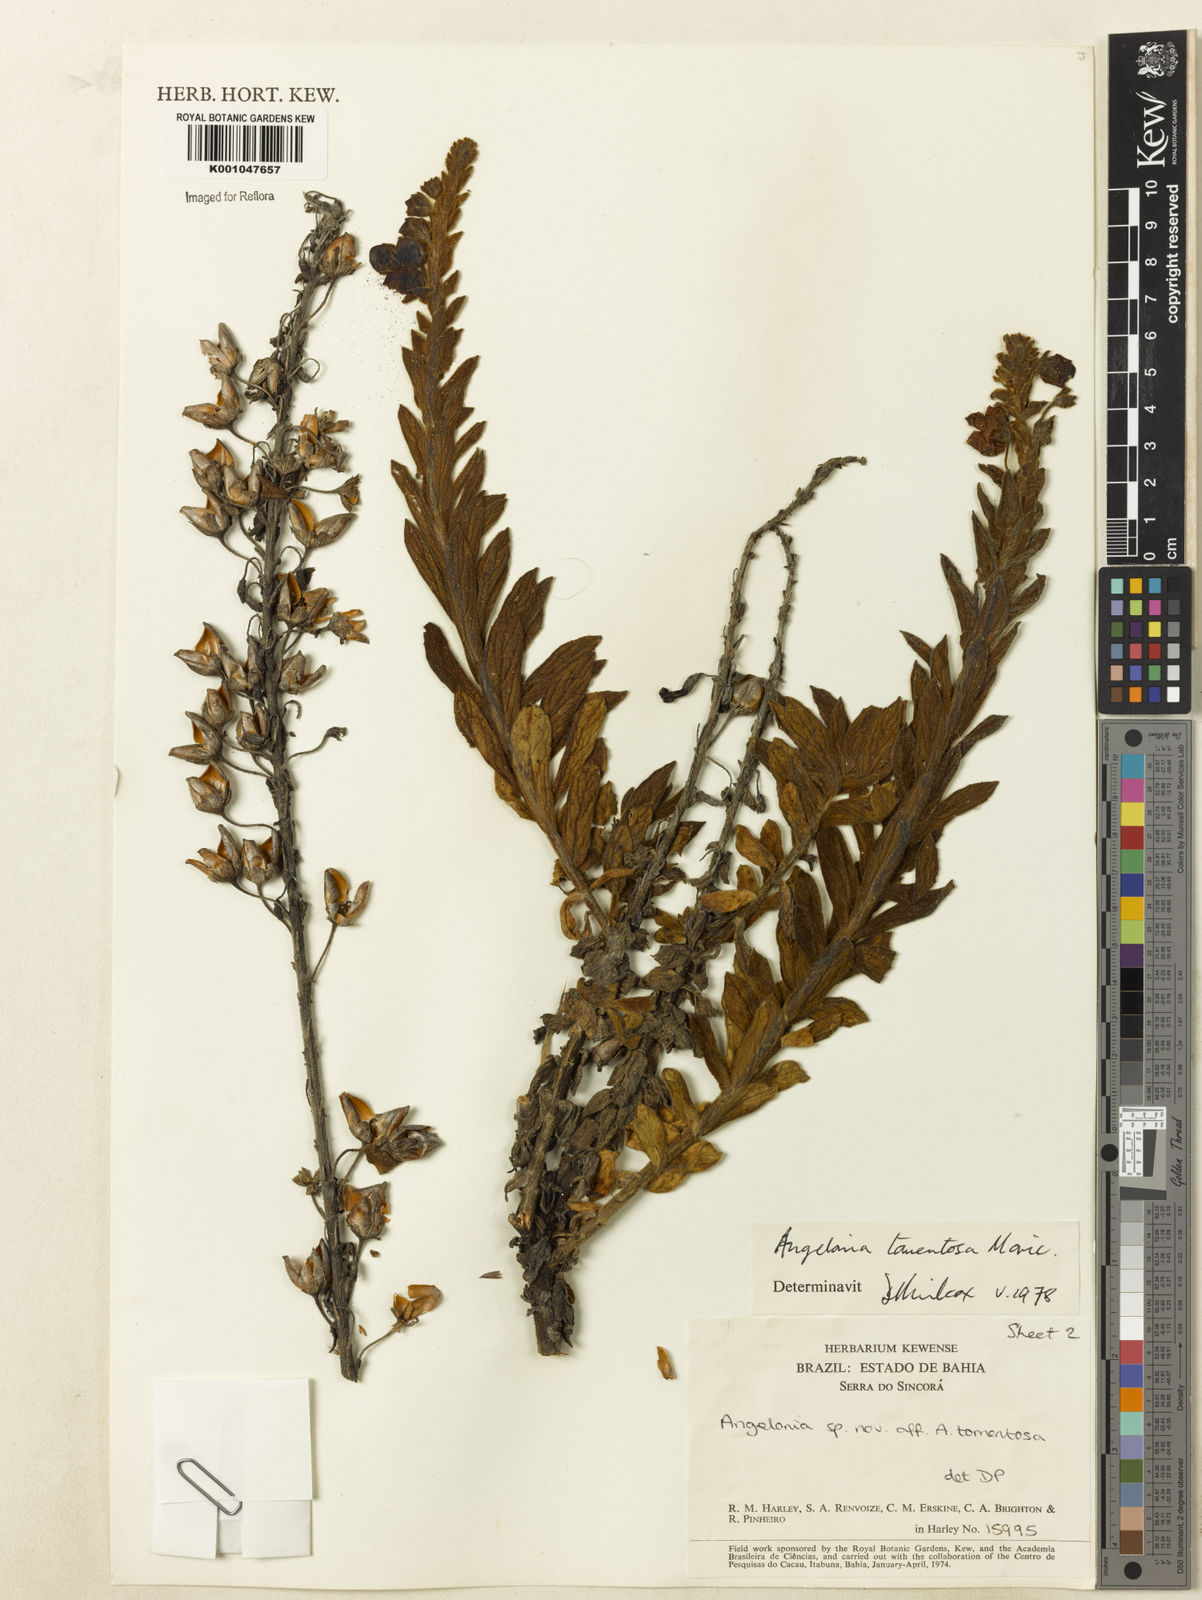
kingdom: Plantae
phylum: Tracheophyta
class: Magnoliopsida
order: Lamiales
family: Plantaginaceae
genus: Angelonia
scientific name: Angelonia tomentosa
